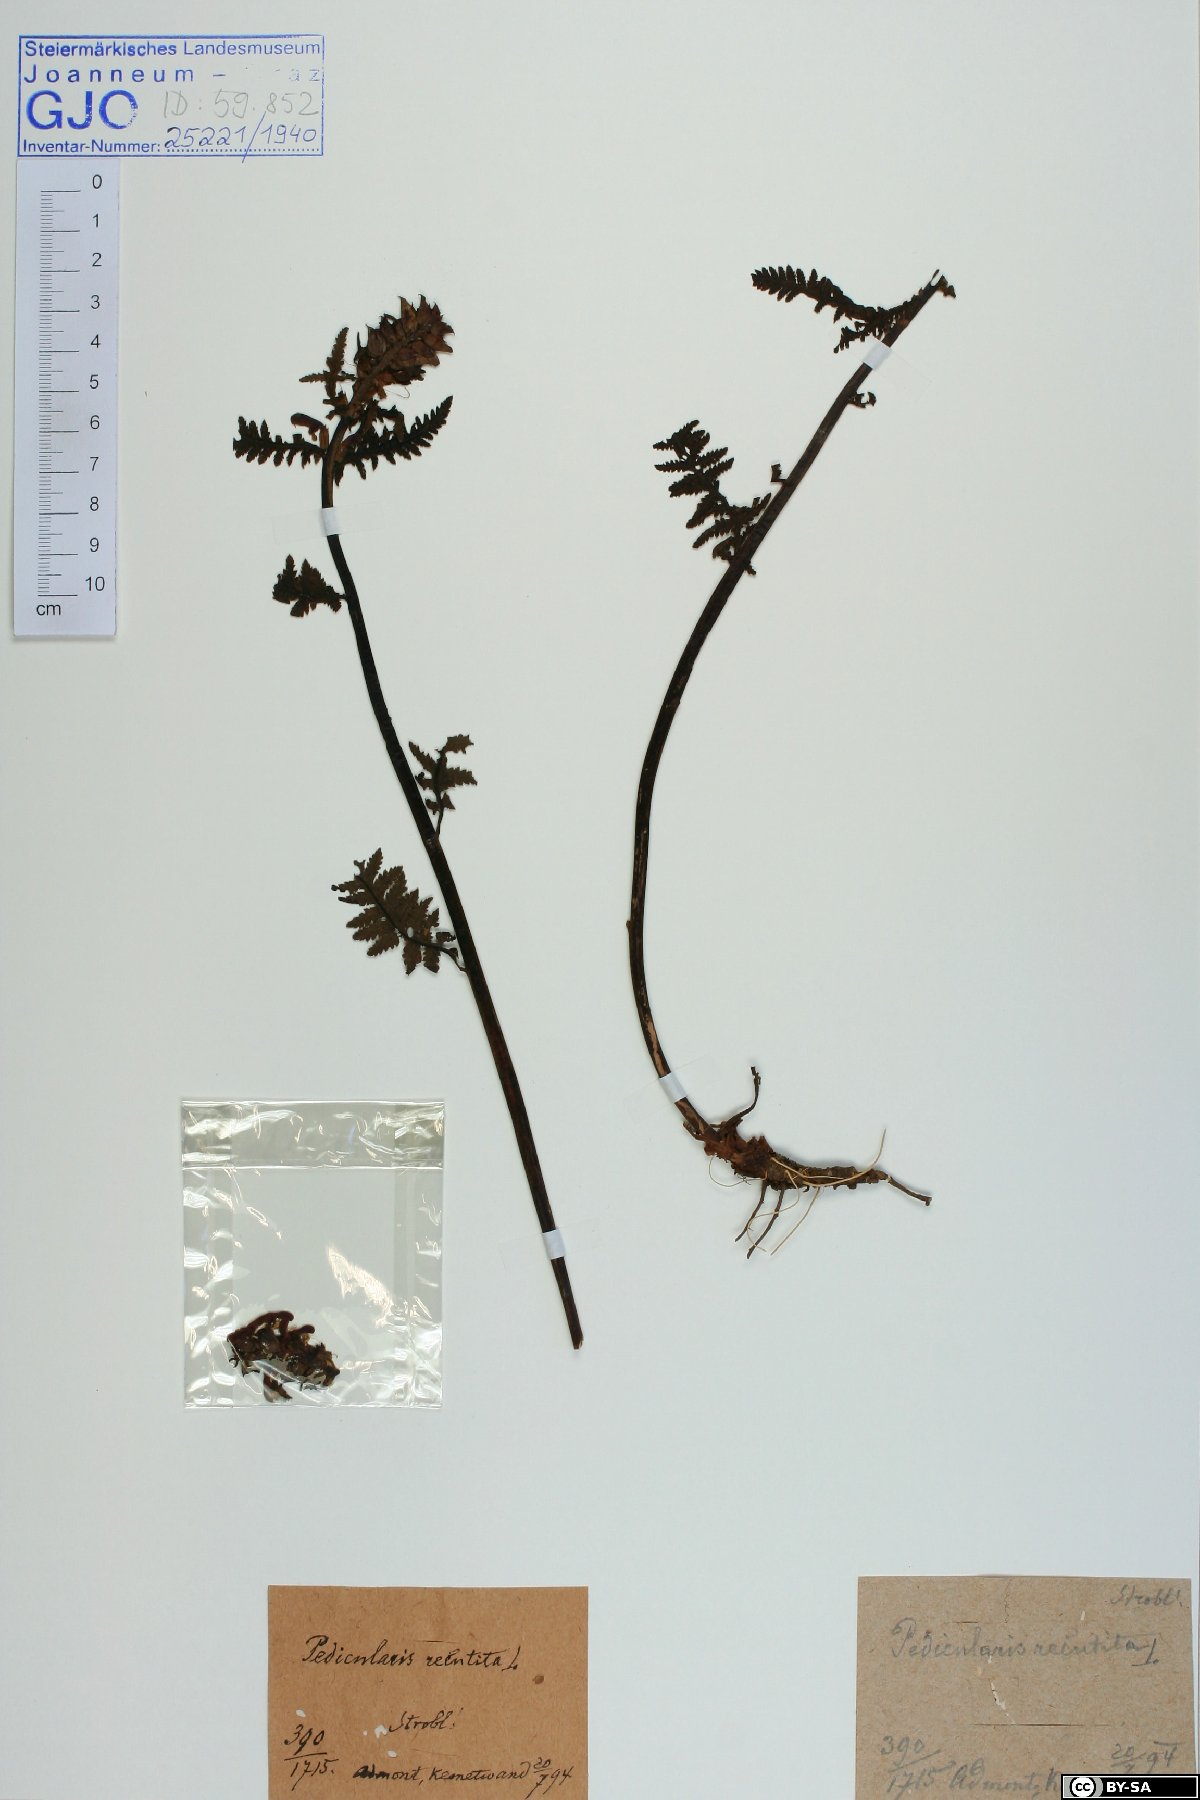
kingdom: Plantae
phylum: Tracheophyta
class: Magnoliopsida
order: Lamiales
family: Orobanchaceae
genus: Pedicularis
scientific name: Pedicularis recutita
